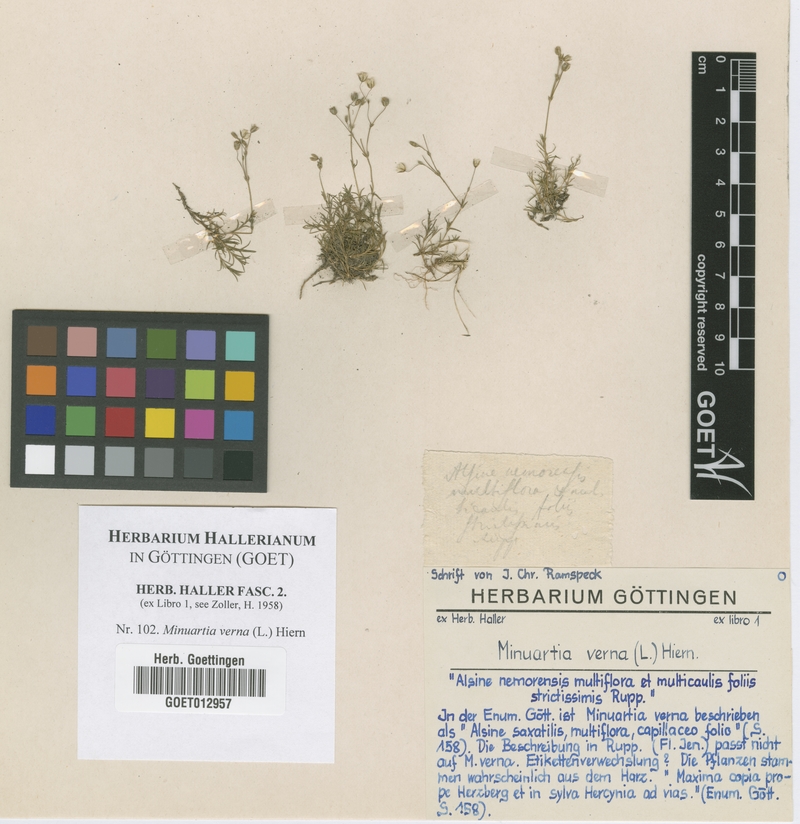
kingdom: Plantae
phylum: Tracheophyta
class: Magnoliopsida
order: Caryophyllales
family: Caryophyllaceae
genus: Sabulina
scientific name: Sabulina verna
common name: Spring sandwort
